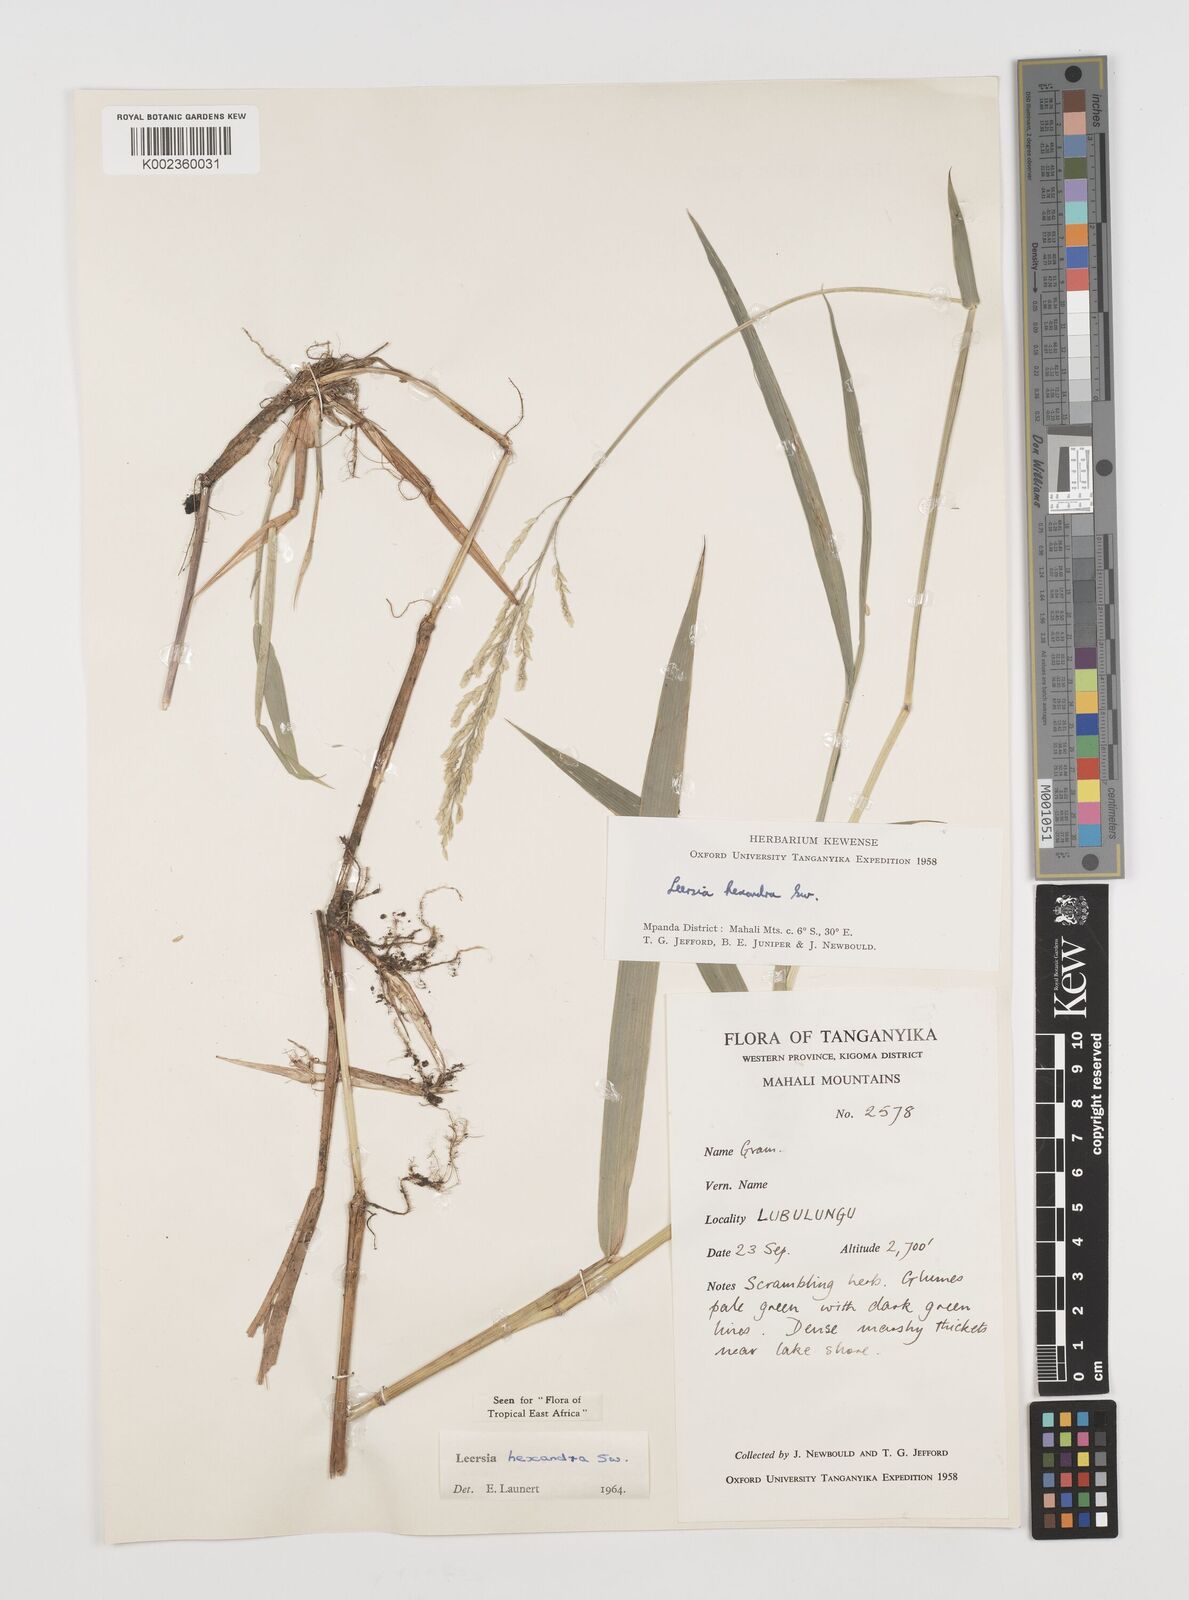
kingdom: Plantae
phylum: Tracheophyta
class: Liliopsida
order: Poales
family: Poaceae
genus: Leersia
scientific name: Leersia hexandra
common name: Southern cut grass
